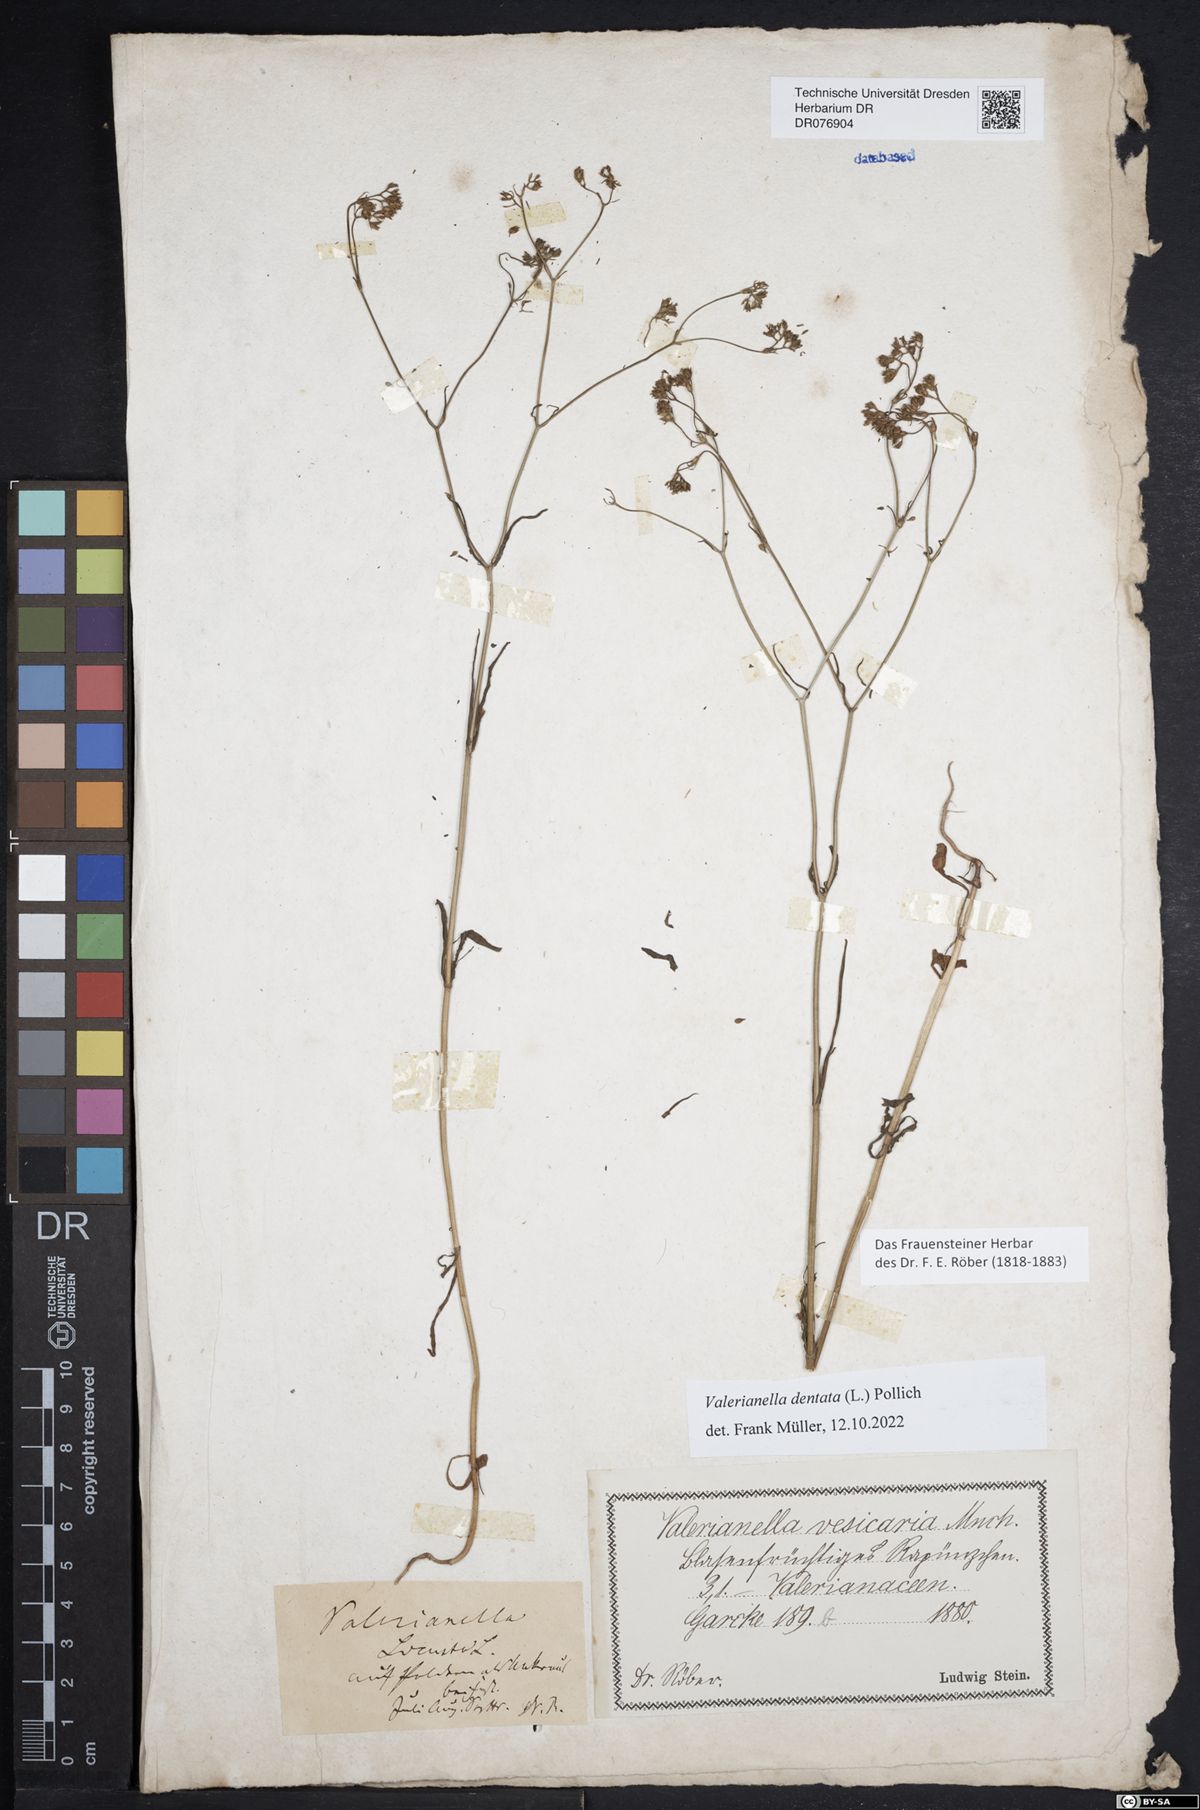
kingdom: Plantae
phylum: Tracheophyta
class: Magnoliopsida
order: Dipsacales
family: Caprifoliaceae
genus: Valerianella
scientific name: Valerianella dentata
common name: Narrow-fruited cornsalad
